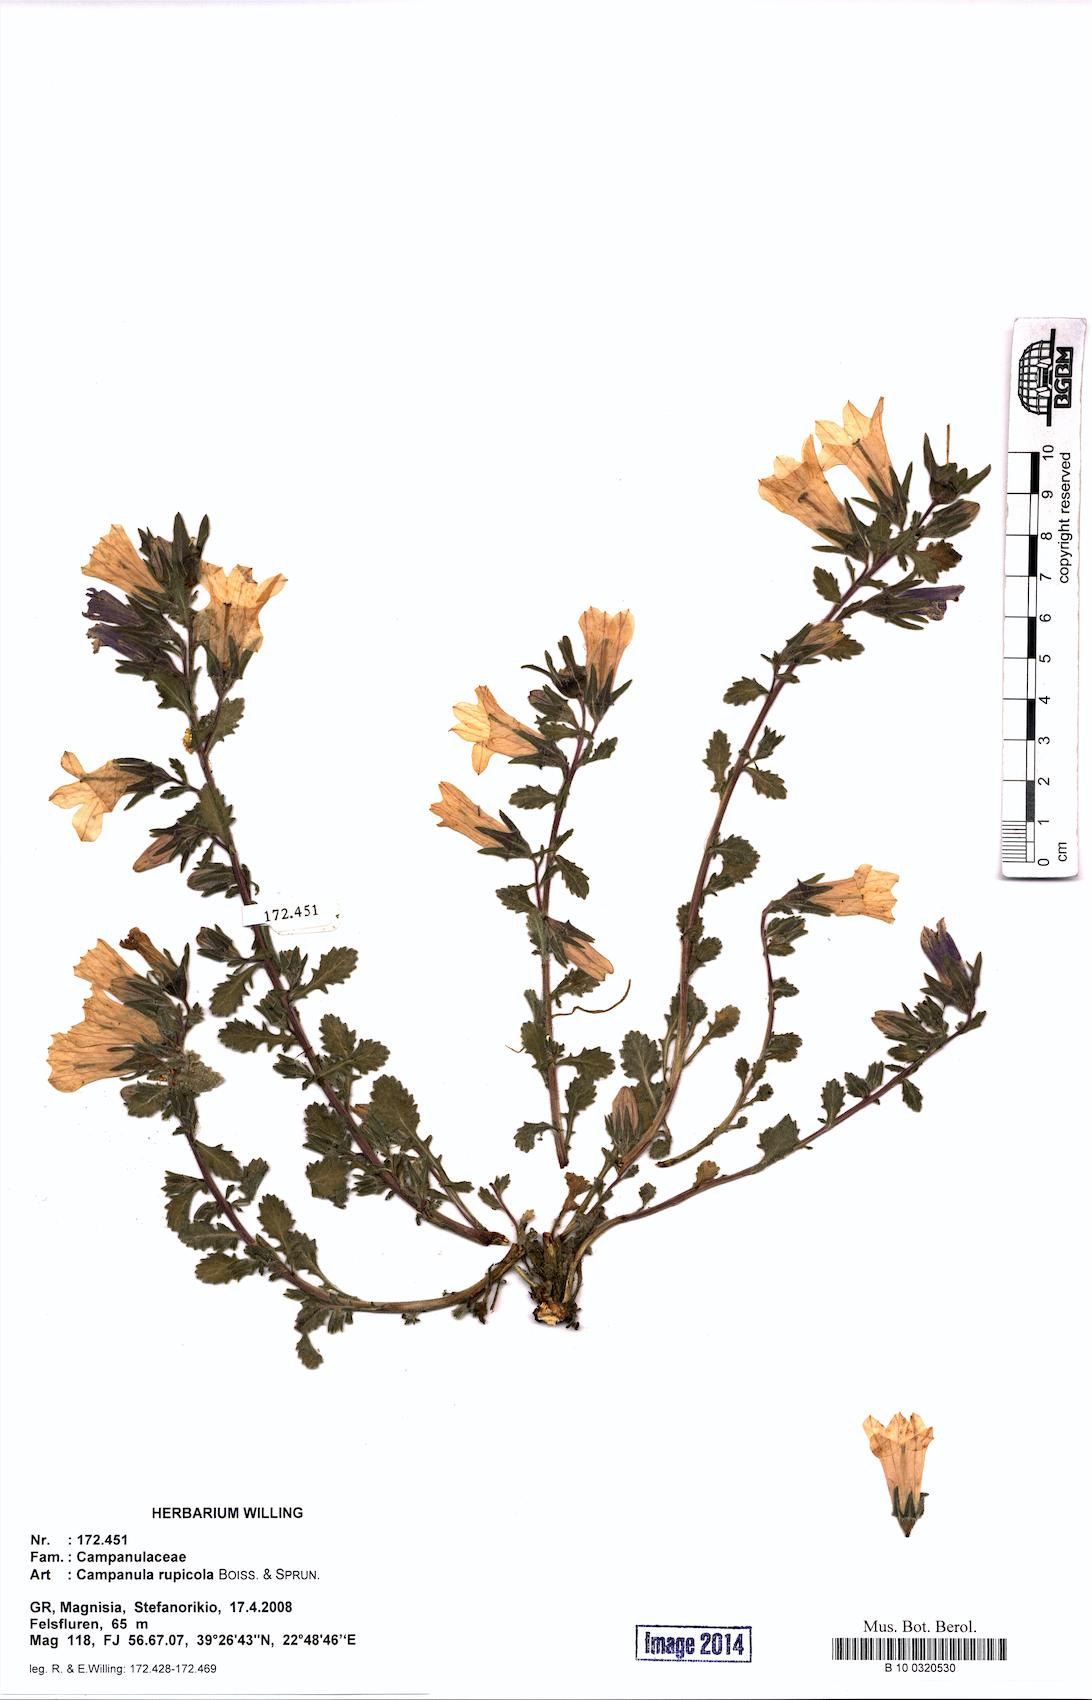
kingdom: Plantae
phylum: Tracheophyta
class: Magnoliopsida
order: Asterales
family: Campanulaceae
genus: Campanula
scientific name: Campanula rupicola
